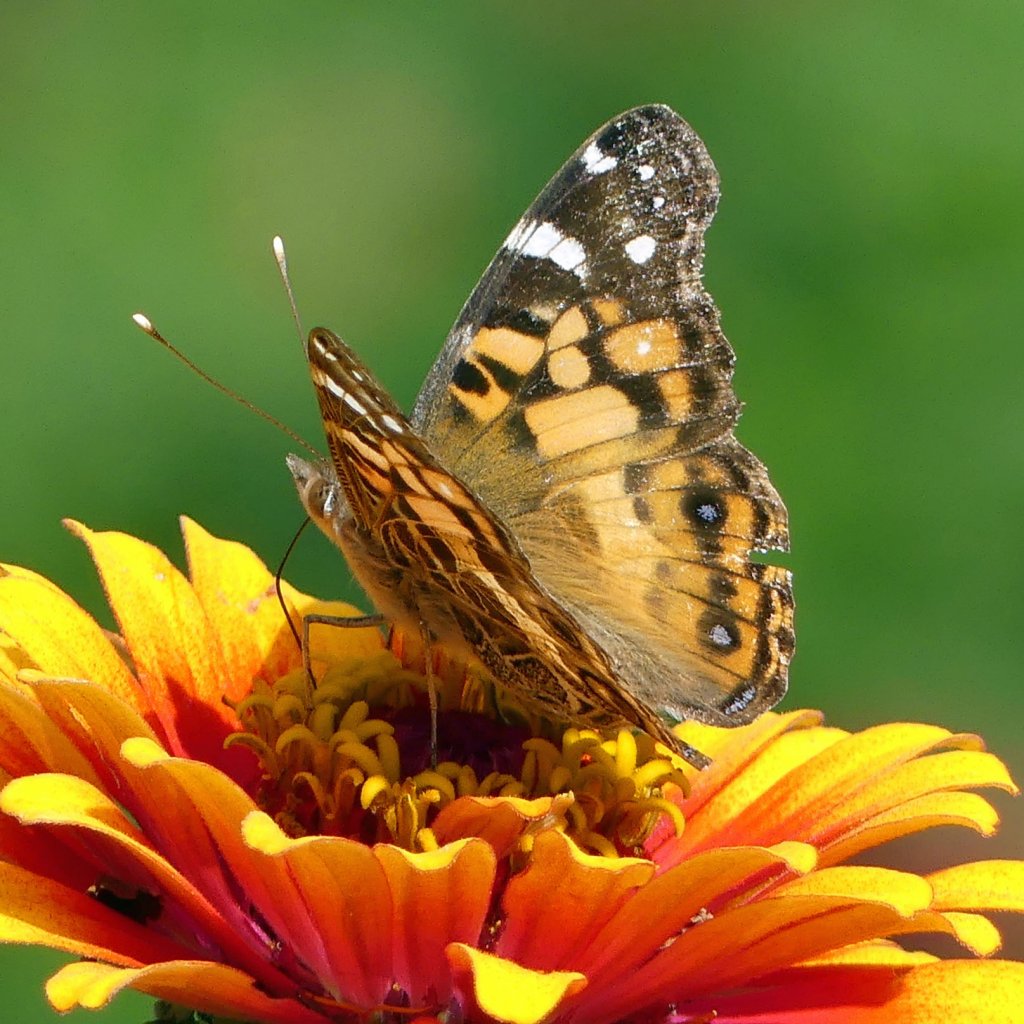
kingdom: Animalia
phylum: Arthropoda
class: Insecta
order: Lepidoptera
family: Nymphalidae
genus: Vanessa
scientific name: Vanessa virginiensis
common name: American Lady
